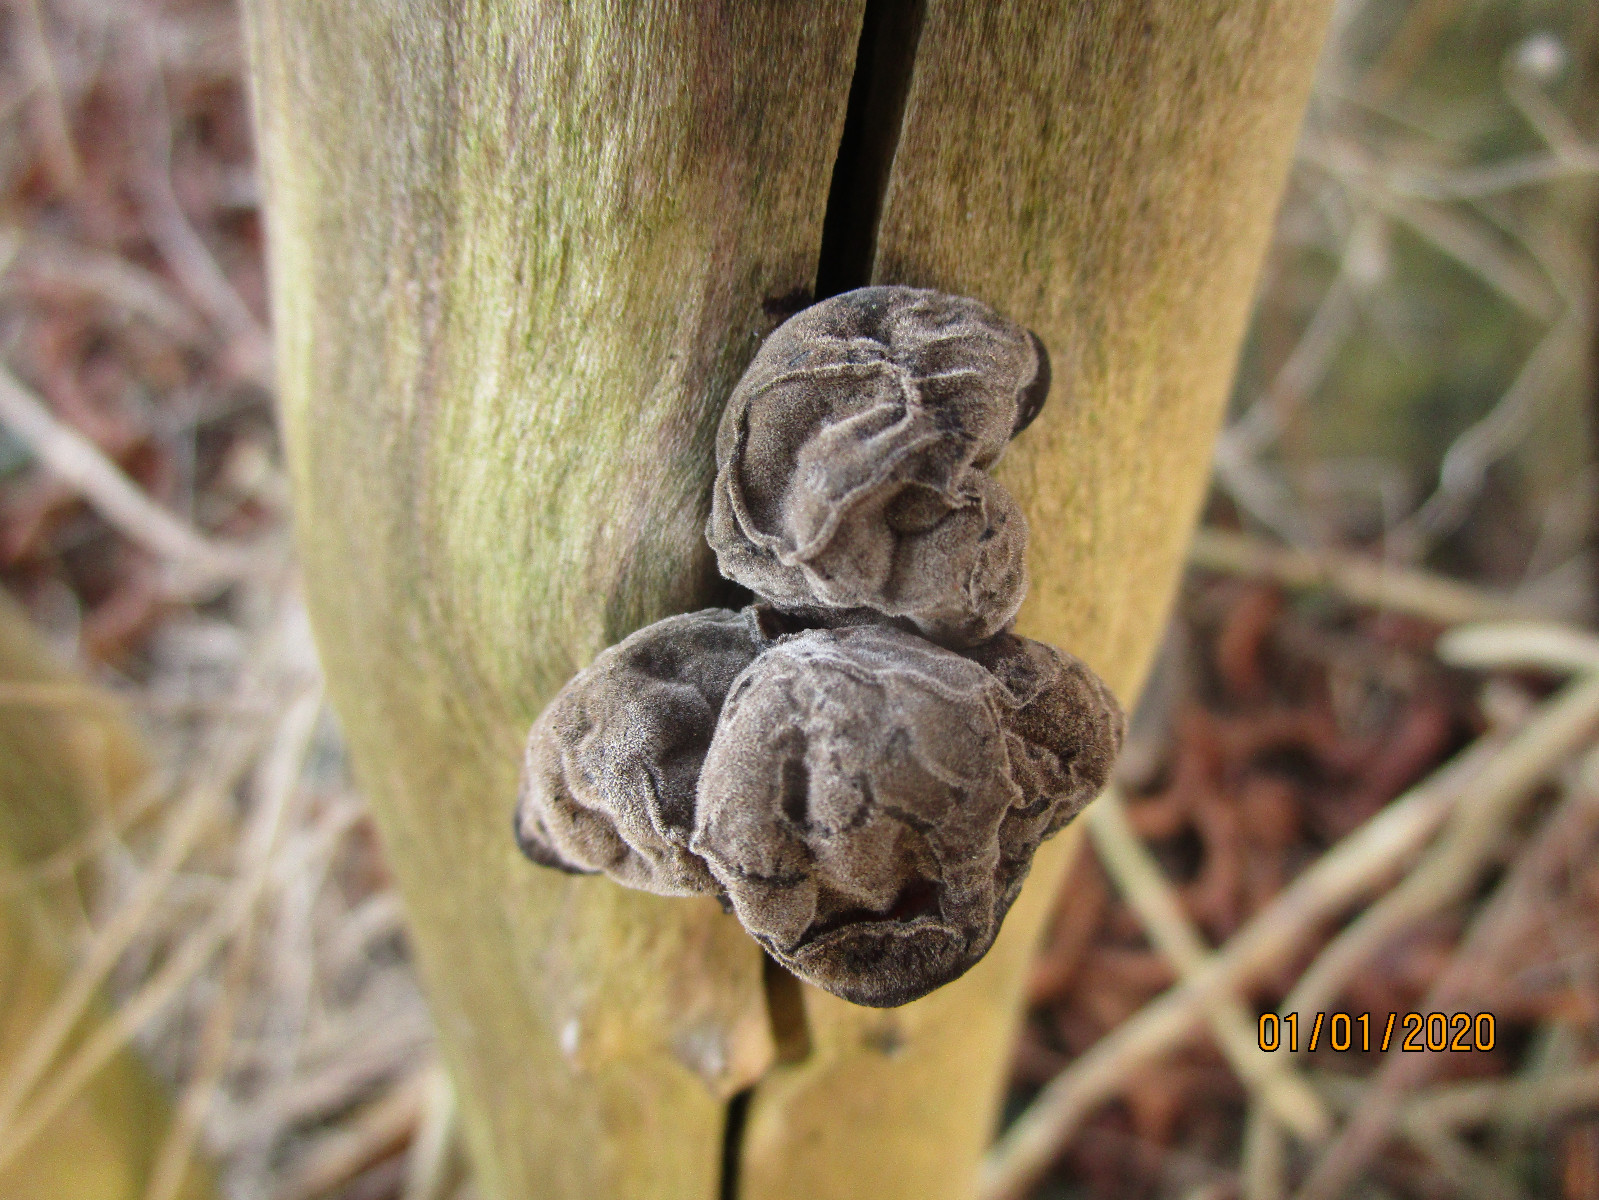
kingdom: Fungi
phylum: Basidiomycota
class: Agaricomycetes
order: Auriculariales
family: Auriculariaceae
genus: Auricularia
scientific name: Auricularia auricula-judae
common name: almindelig judasøre
